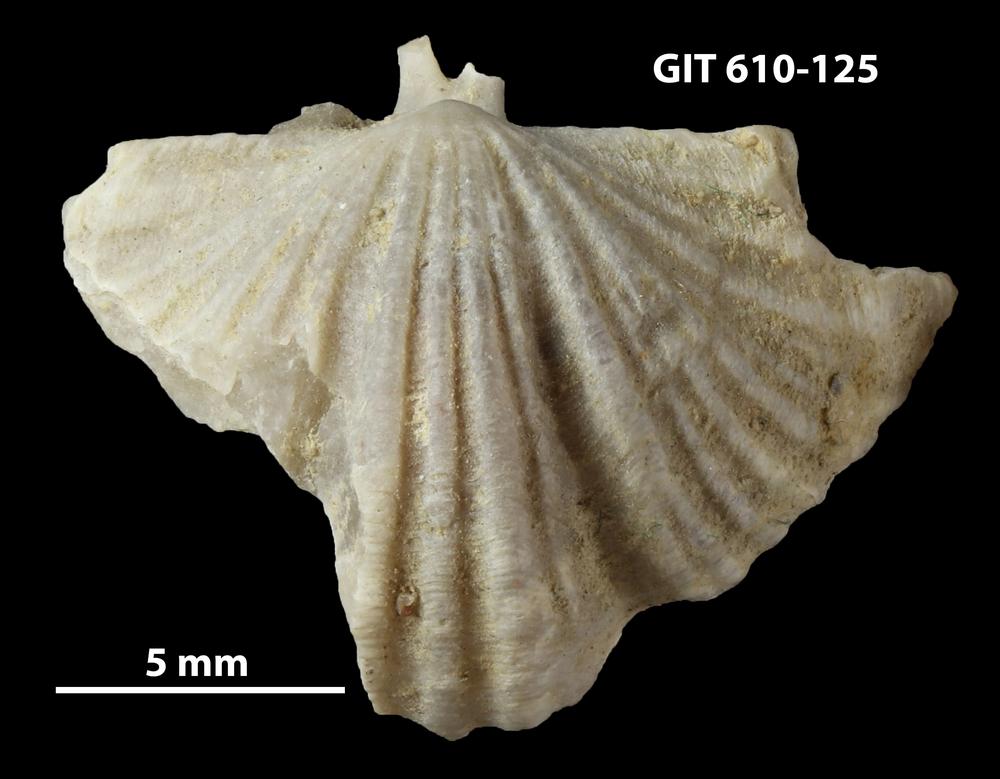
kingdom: Animalia
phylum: Brachiopoda
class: Rhynchonellata
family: Triplesiidae
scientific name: Triplesiidae
